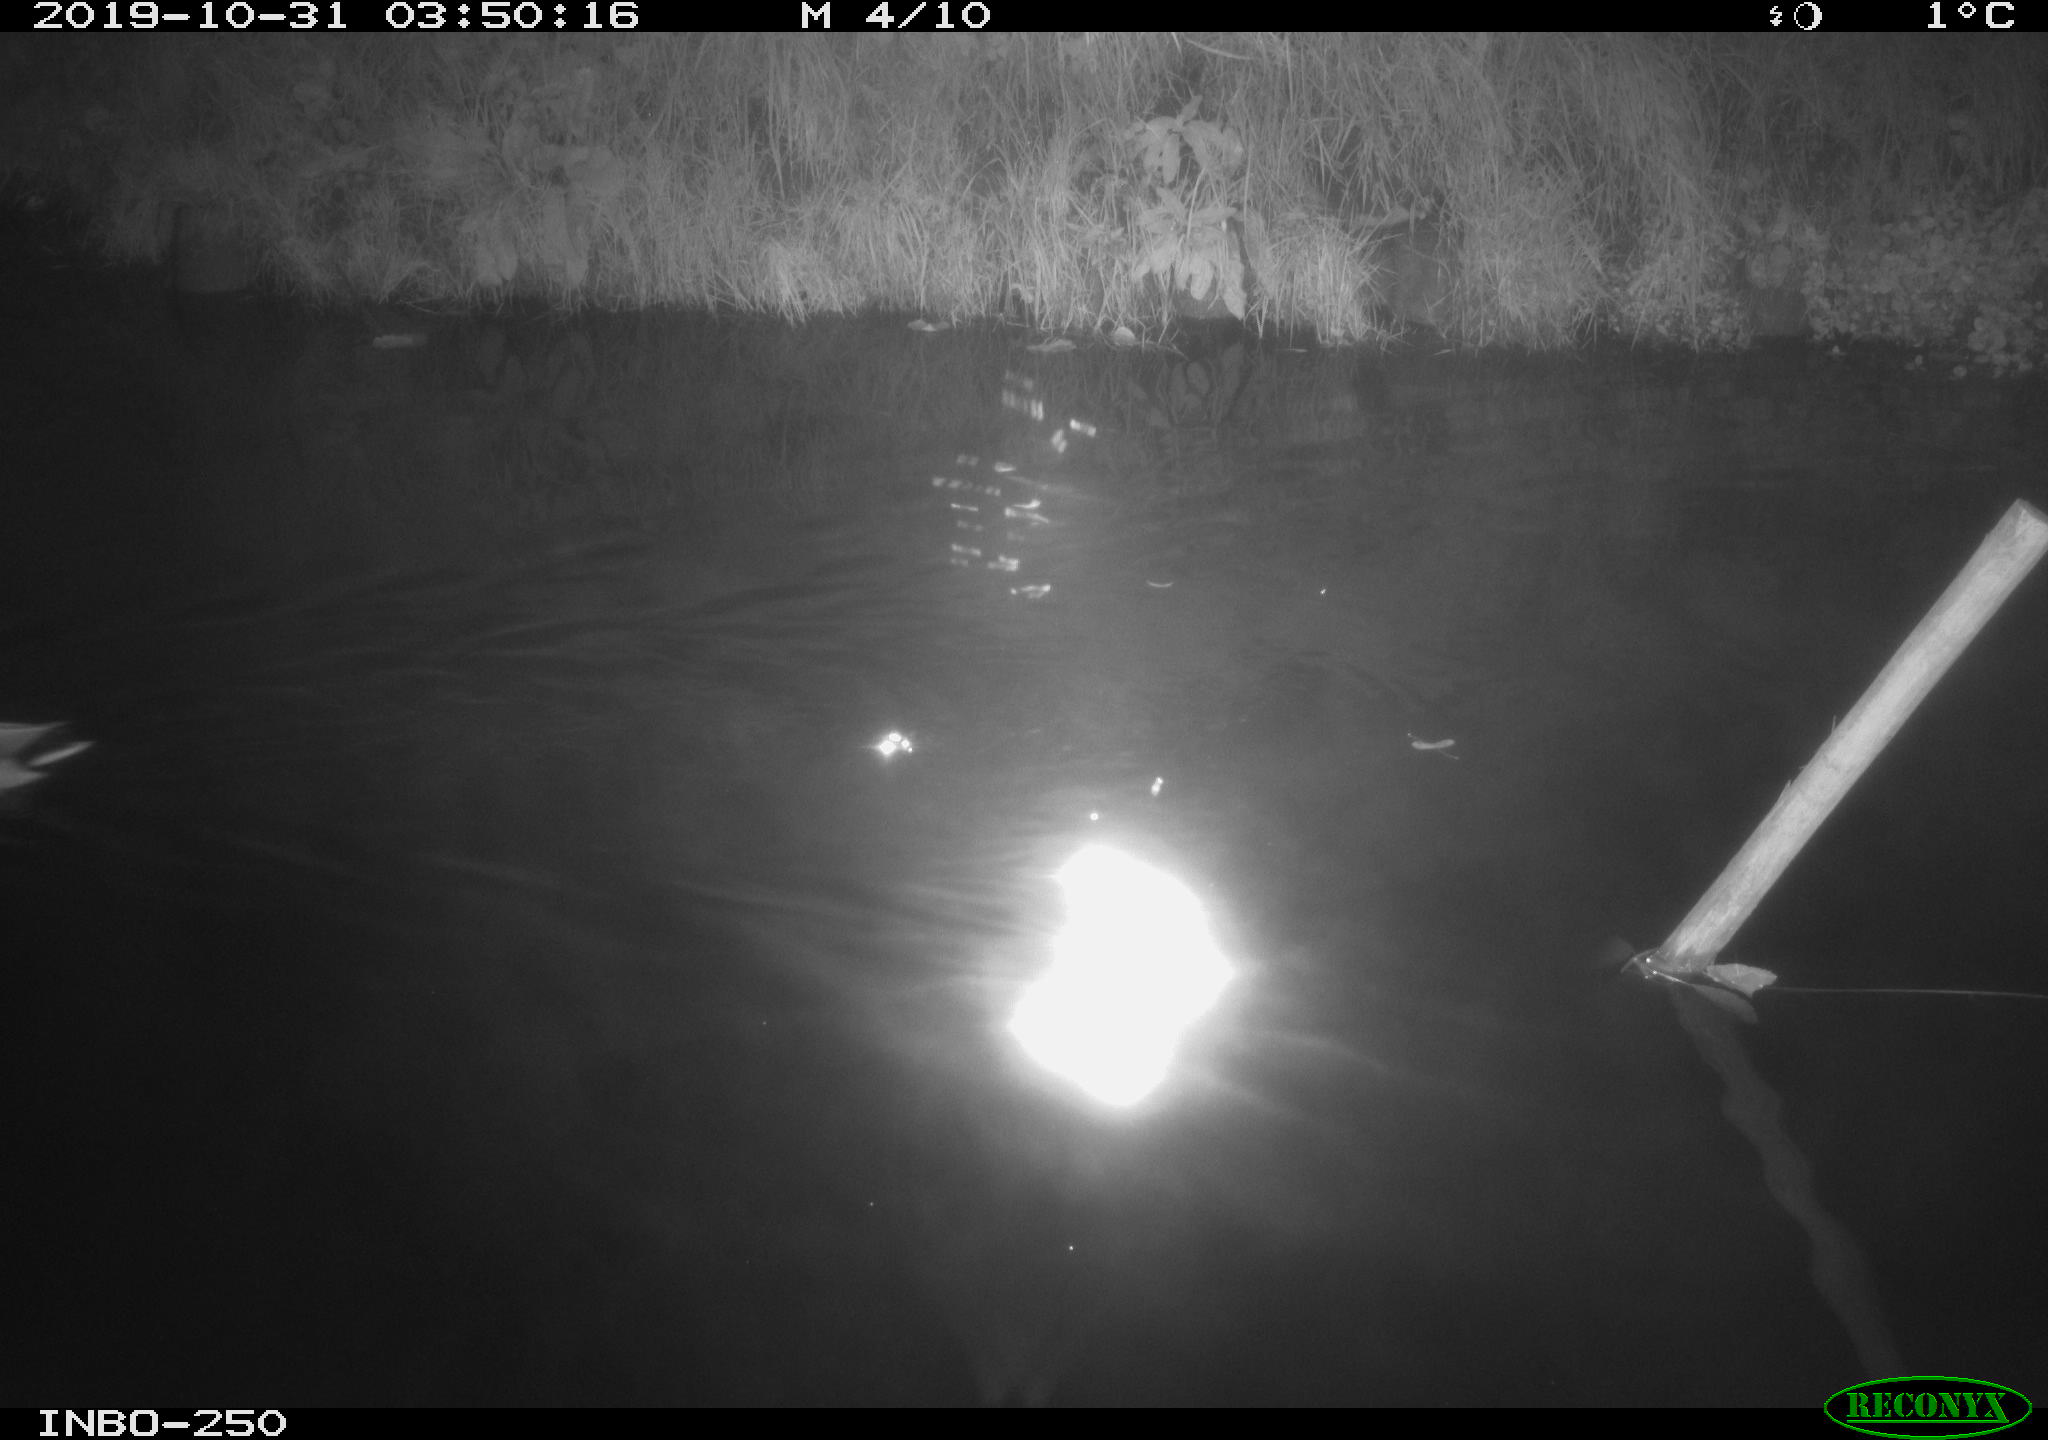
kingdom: Animalia
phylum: Chordata
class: Aves
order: Anseriformes
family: Anatidae
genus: Anas
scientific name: Anas platyrhynchos
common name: Mallard
